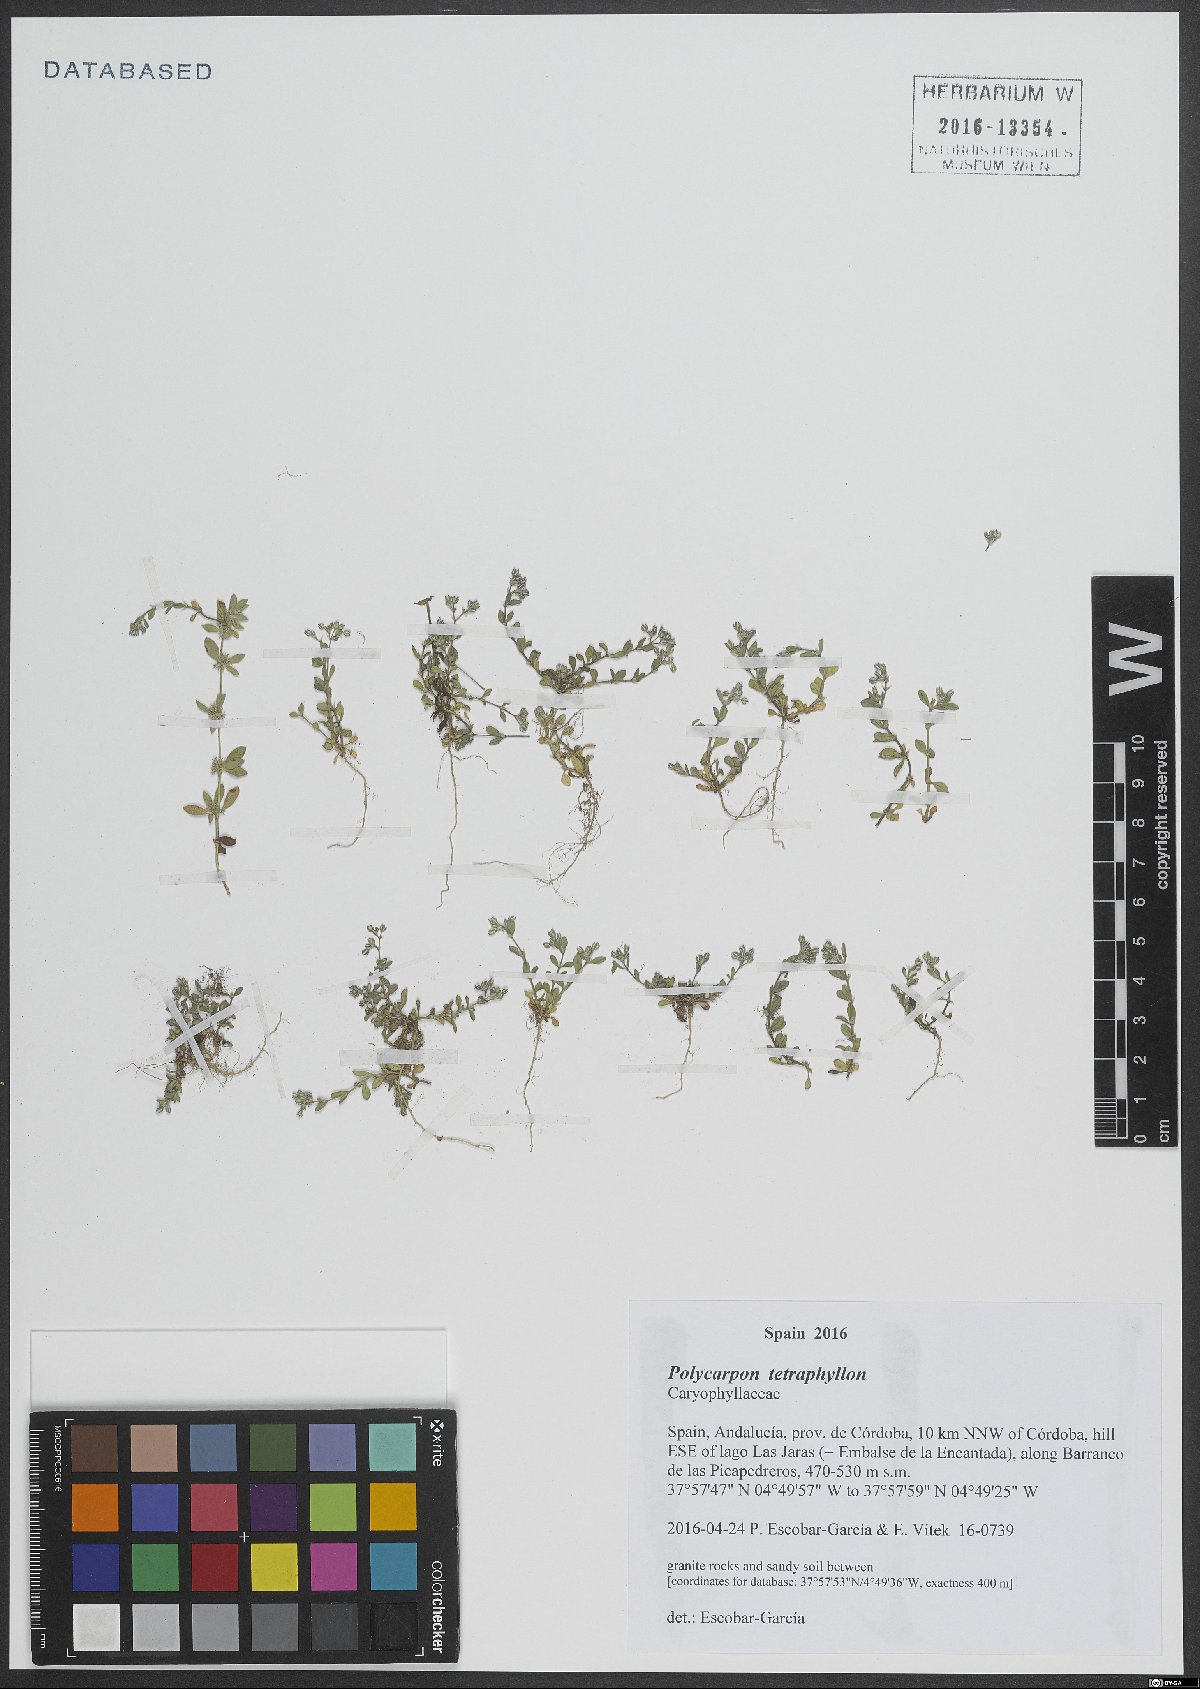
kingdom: Plantae
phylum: Tracheophyta
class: Magnoliopsida
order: Caryophyllales
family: Caryophyllaceae
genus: Polycarpon
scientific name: Polycarpon tetraphyllum
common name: Four-leaved all-seed
